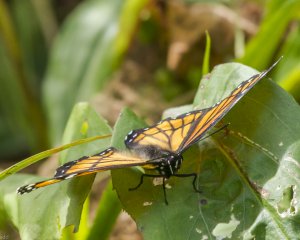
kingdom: Animalia
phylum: Arthropoda
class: Insecta
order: Lepidoptera
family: Nymphalidae
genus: Limenitis
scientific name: Limenitis archippus
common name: Viceroy
